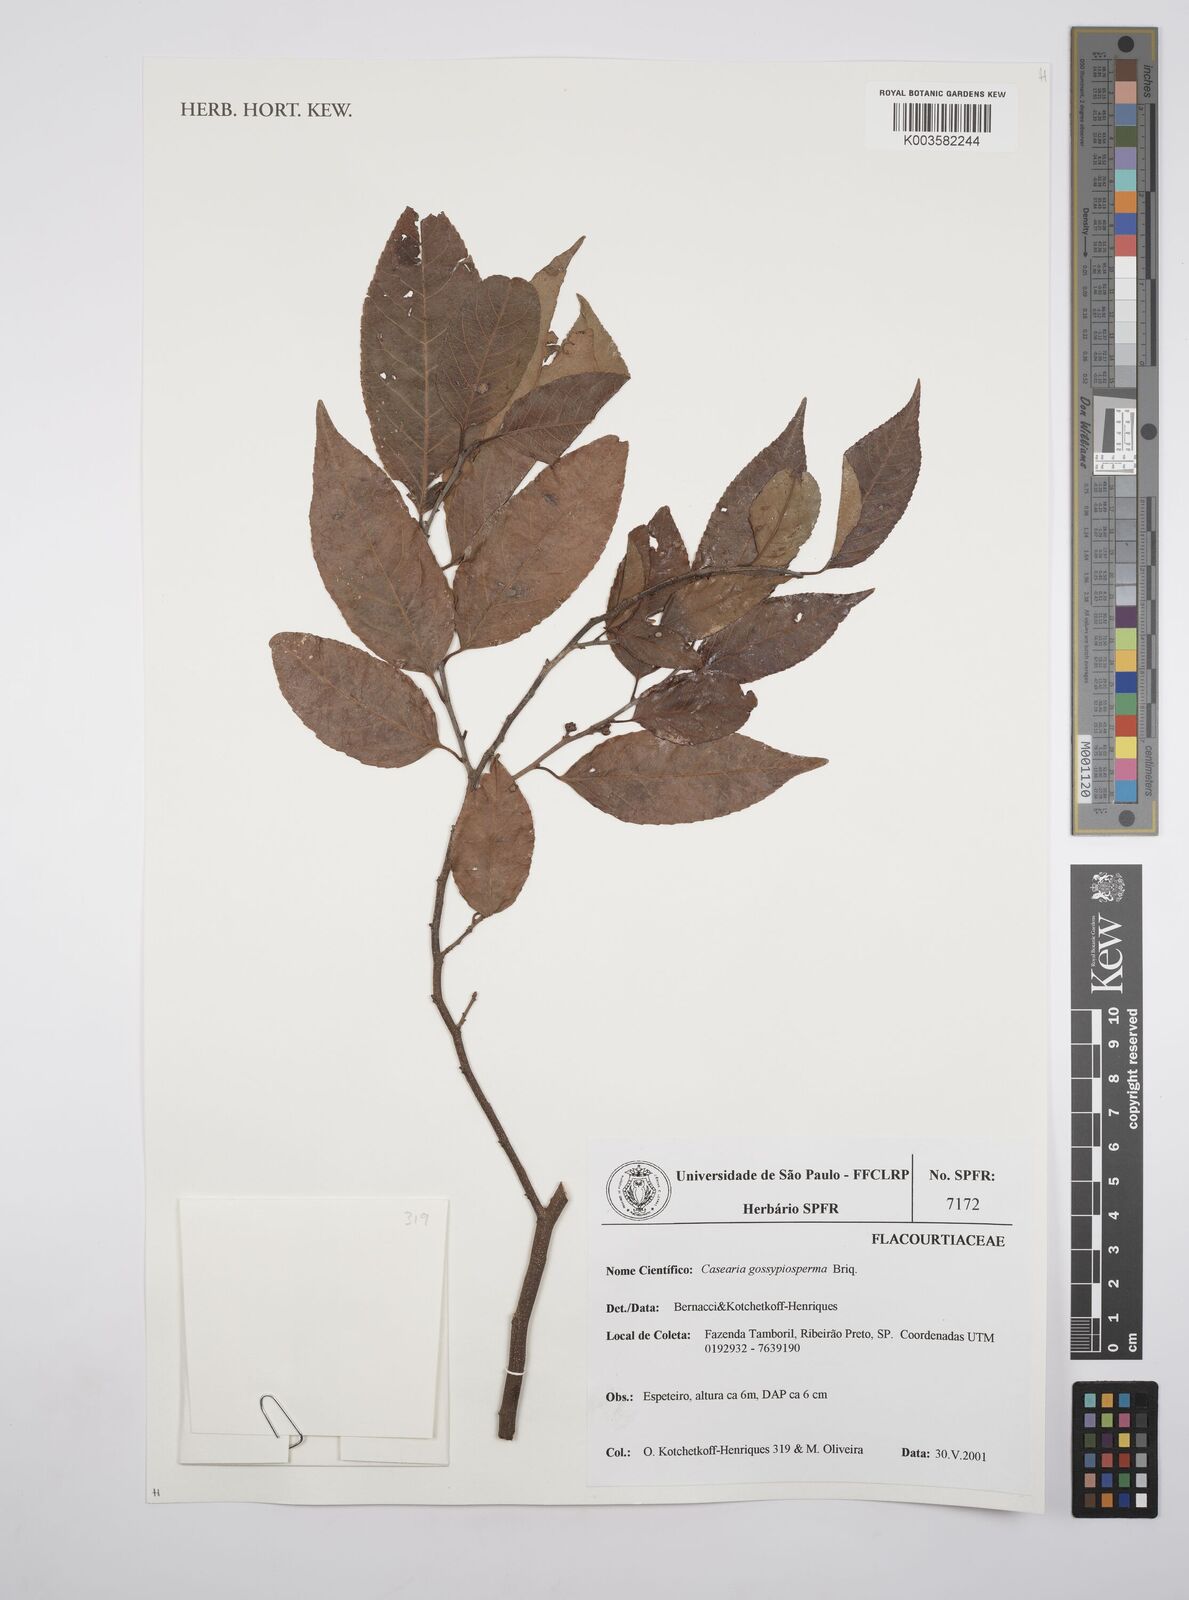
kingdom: Plantae
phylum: Tracheophyta
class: Magnoliopsida
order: Malpighiales
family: Salicaceae
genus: Casearia
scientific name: Casearia gossypiosperma
